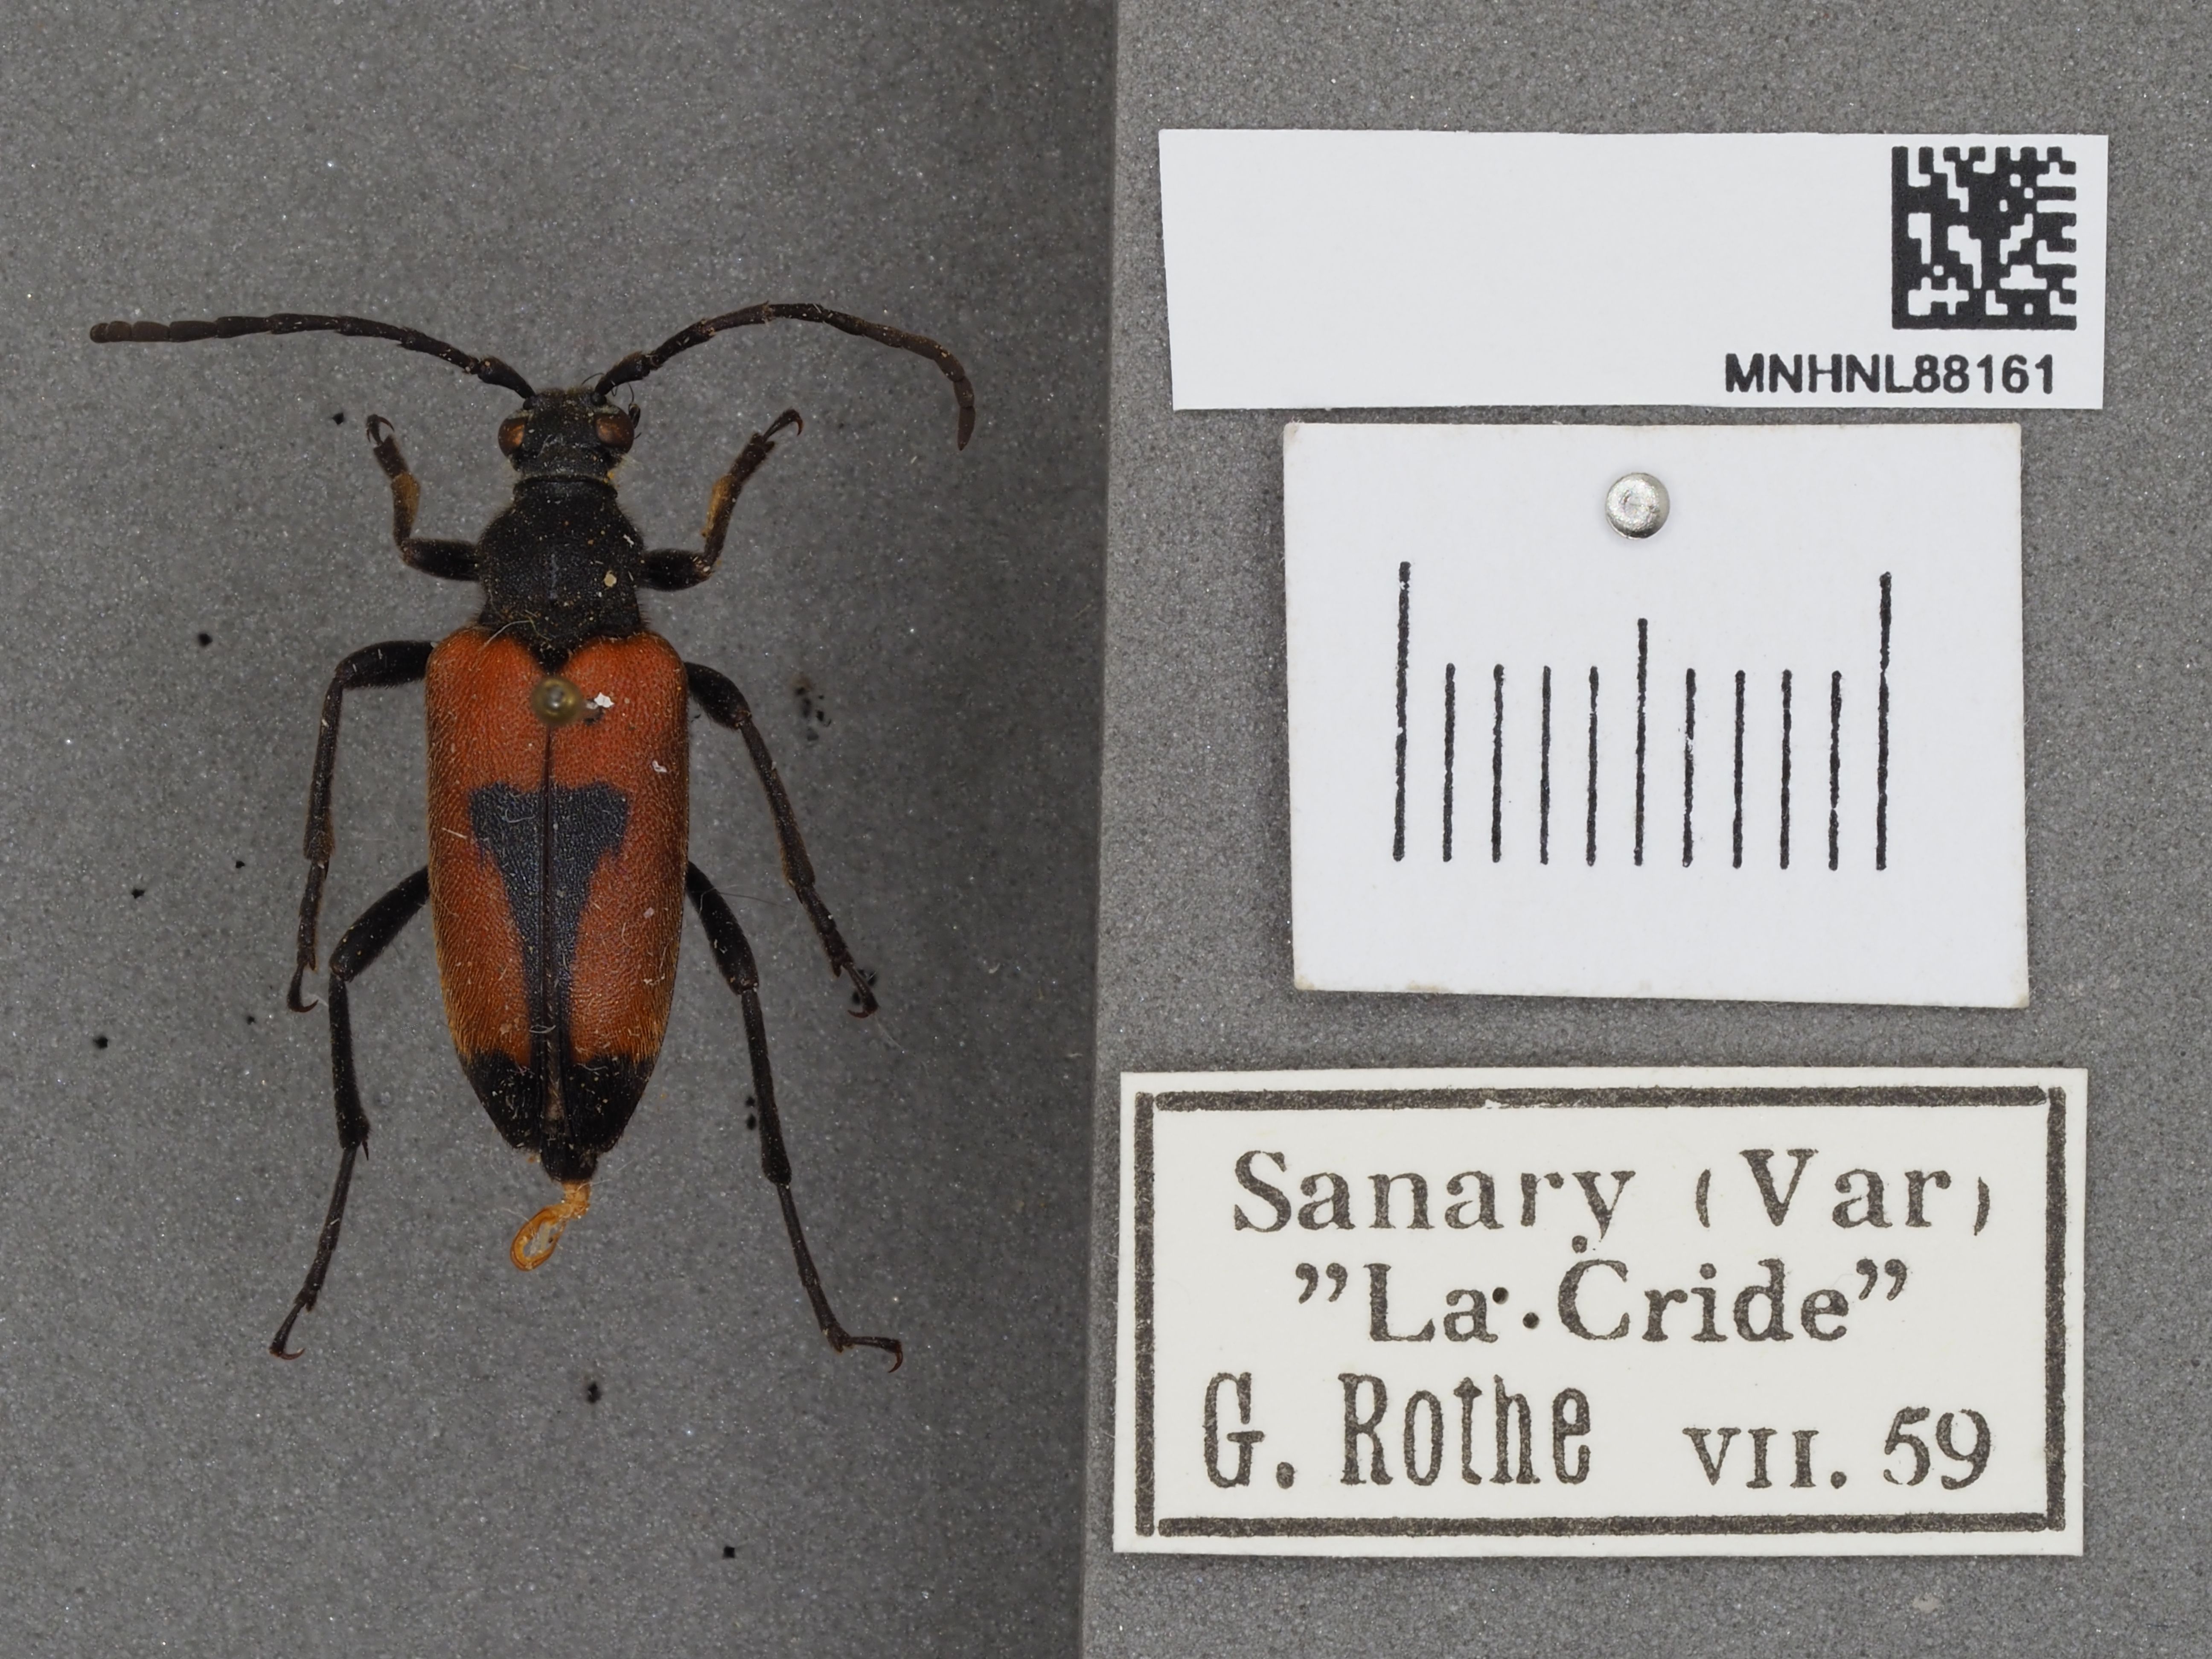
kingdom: Animalia
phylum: Arthropoda
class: Insecta
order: Coleoptera
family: Cerambycidae
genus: Stictoleptura
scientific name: Stictoleptura cordigera
